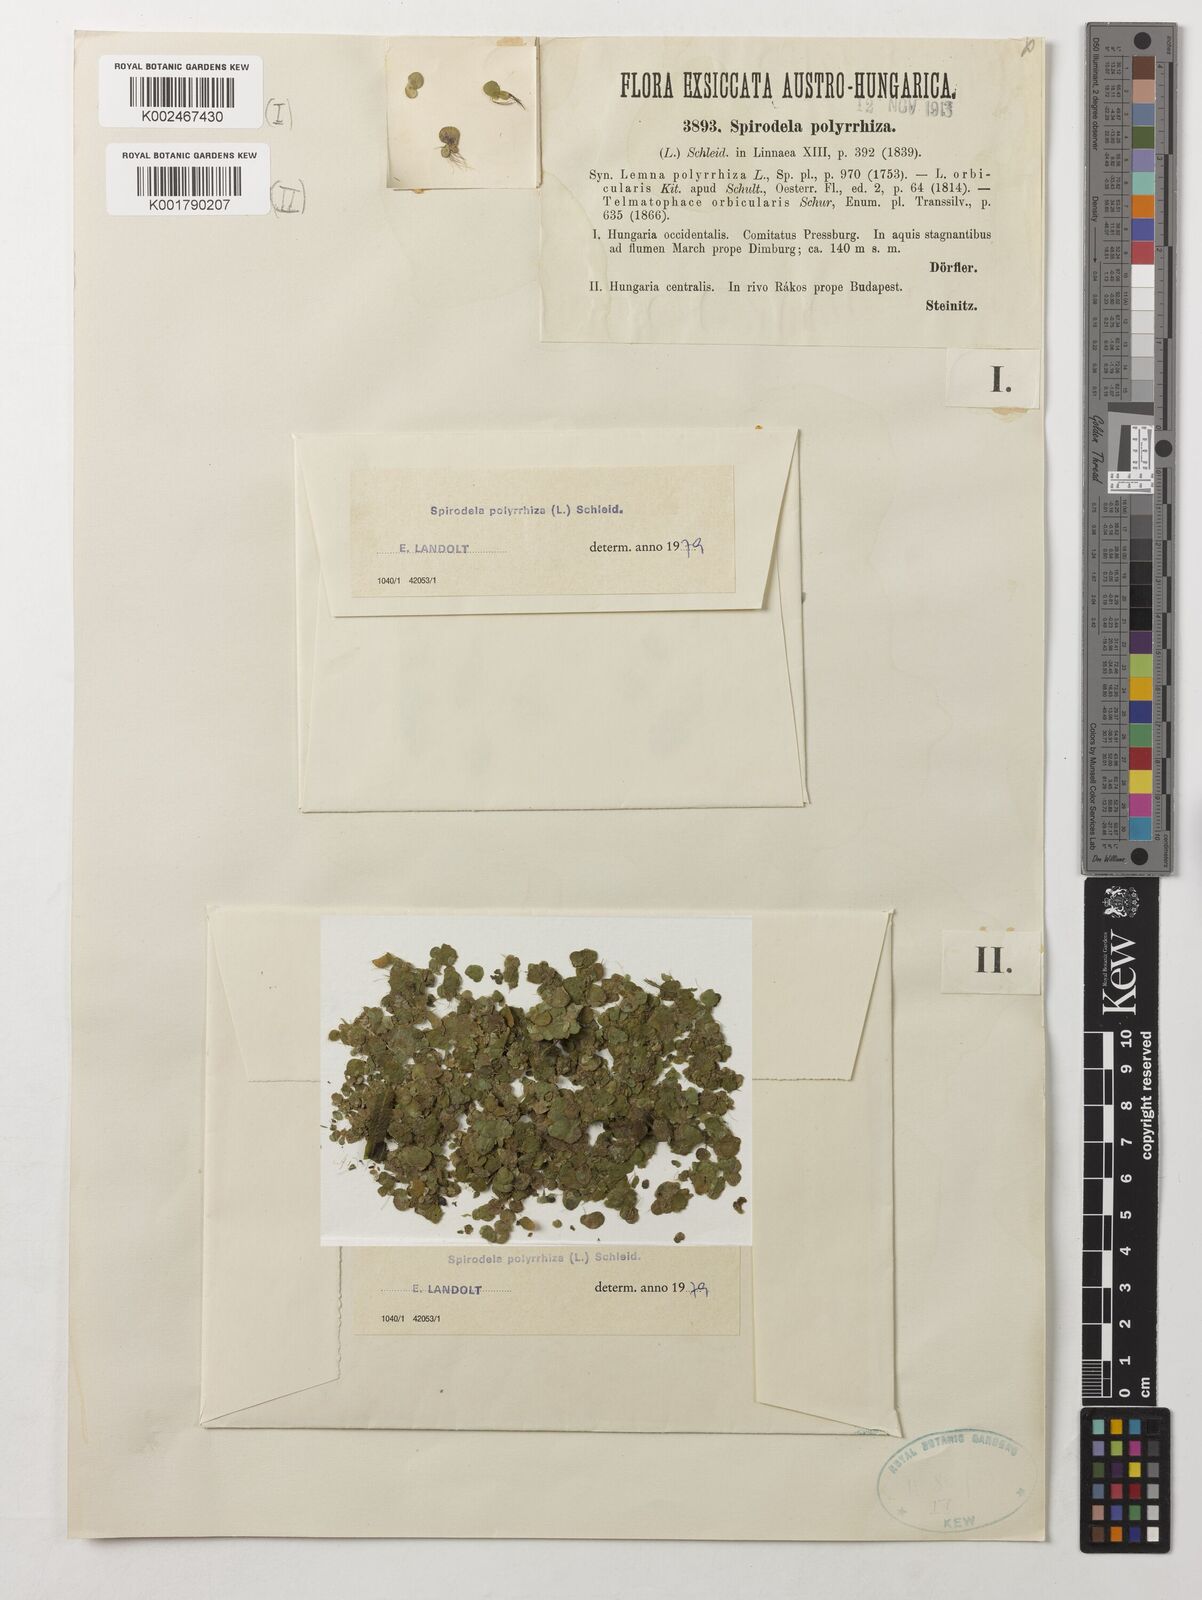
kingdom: Plantae
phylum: Tracheophyta
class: Liliopsida
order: Alismatales
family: Araceae
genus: Spirodela
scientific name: Spirodela polyrhiza
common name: Great duckweed
